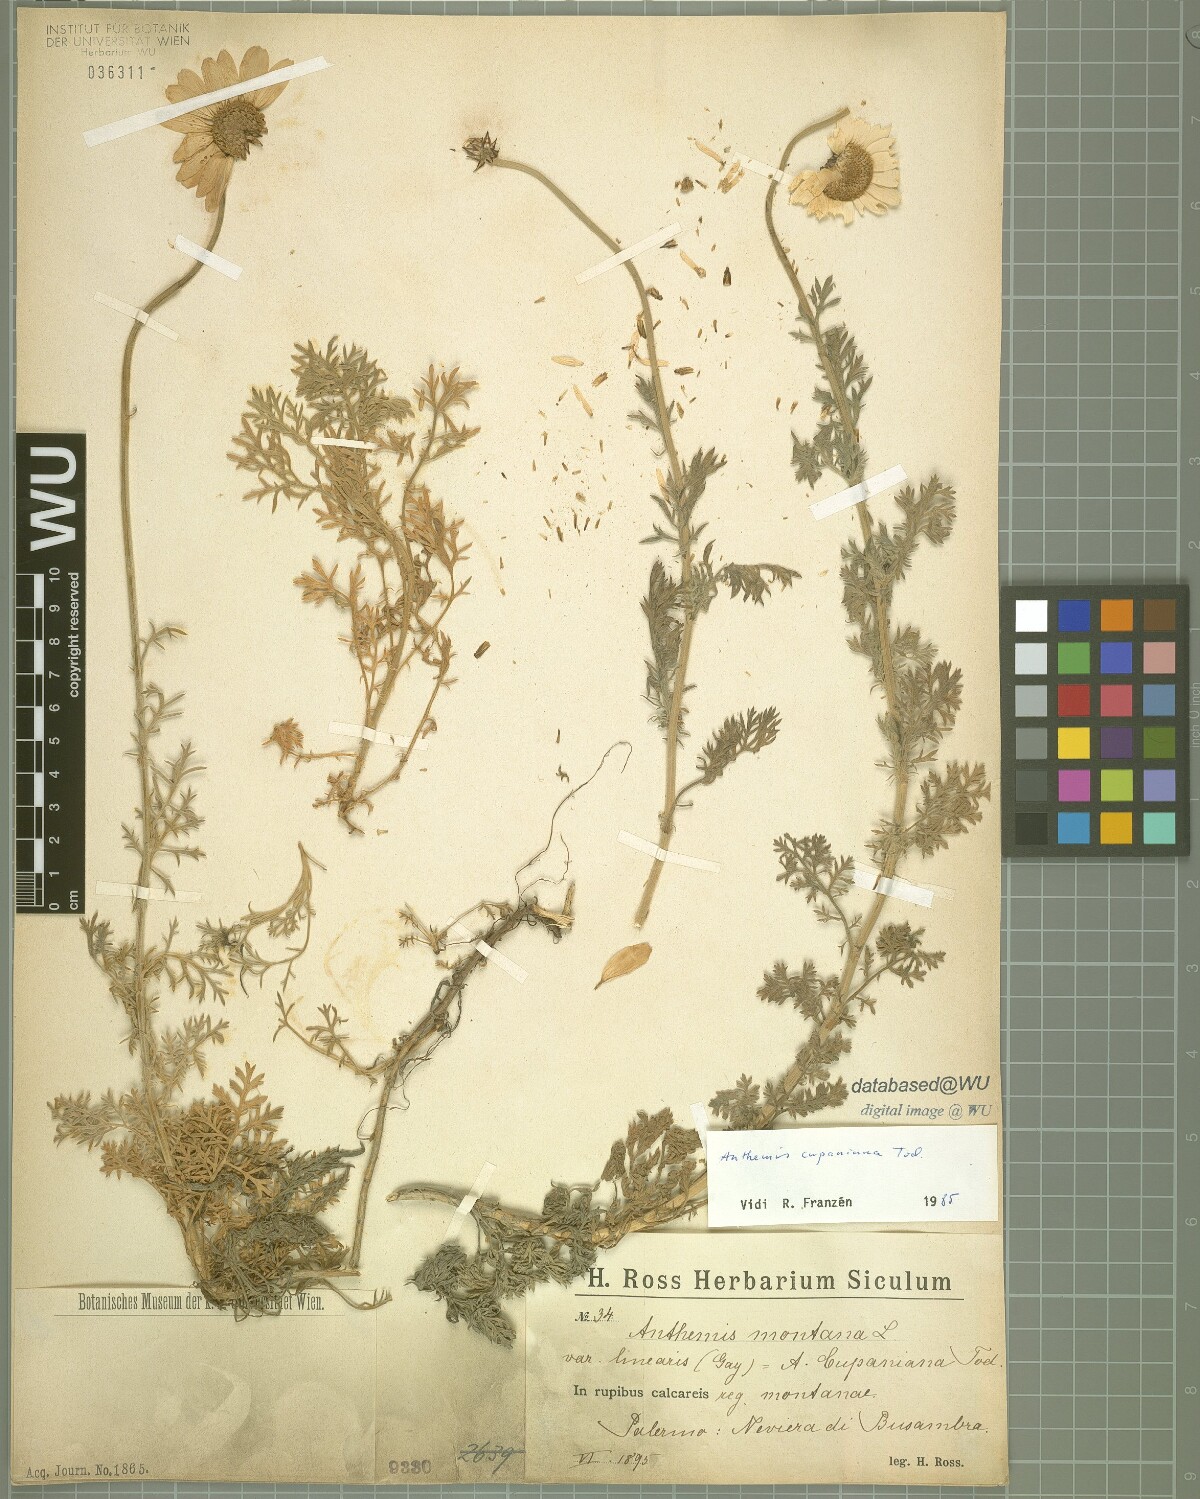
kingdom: Plantae
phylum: Tracheophyta
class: Magnoliopsida
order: Asterales
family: Asteraceae
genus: Anthemis
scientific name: Anthemis cupaniana
